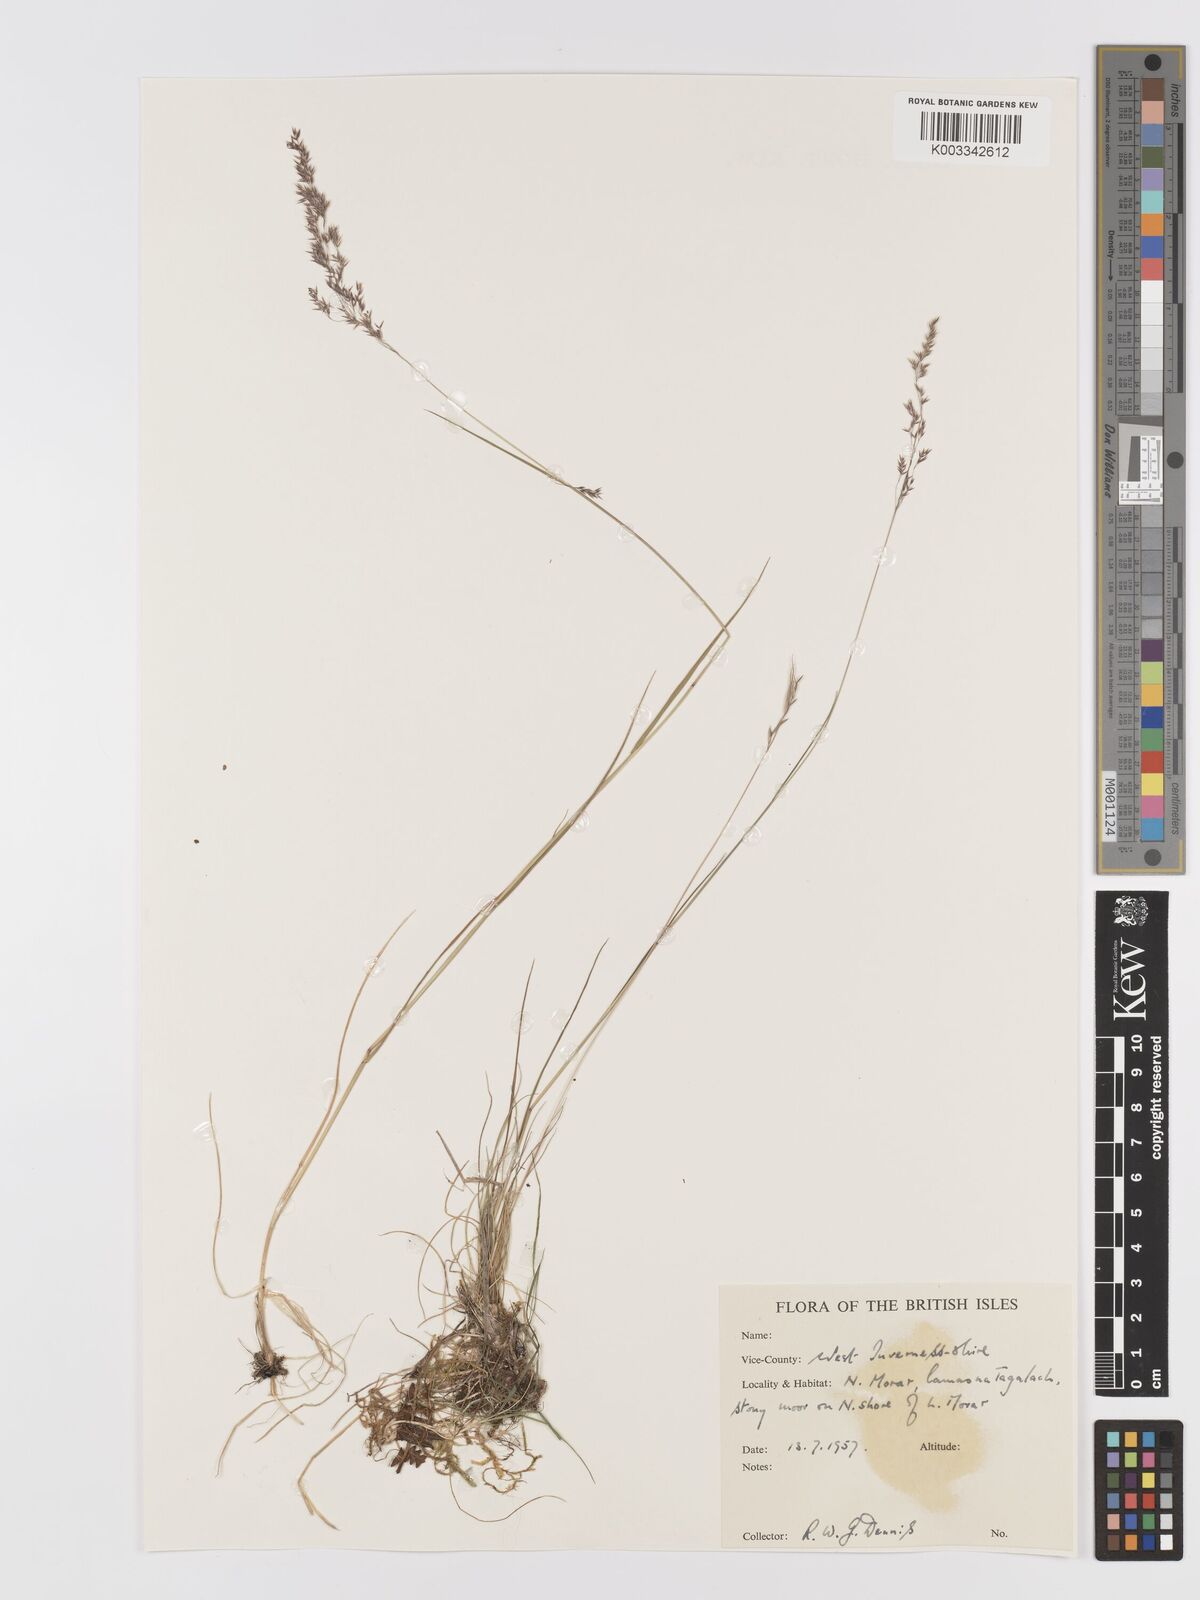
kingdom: Plantae
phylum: Tracheophyta
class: Liliopsida
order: Poales
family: Poaceae
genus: Agrostis
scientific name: Agrostis
